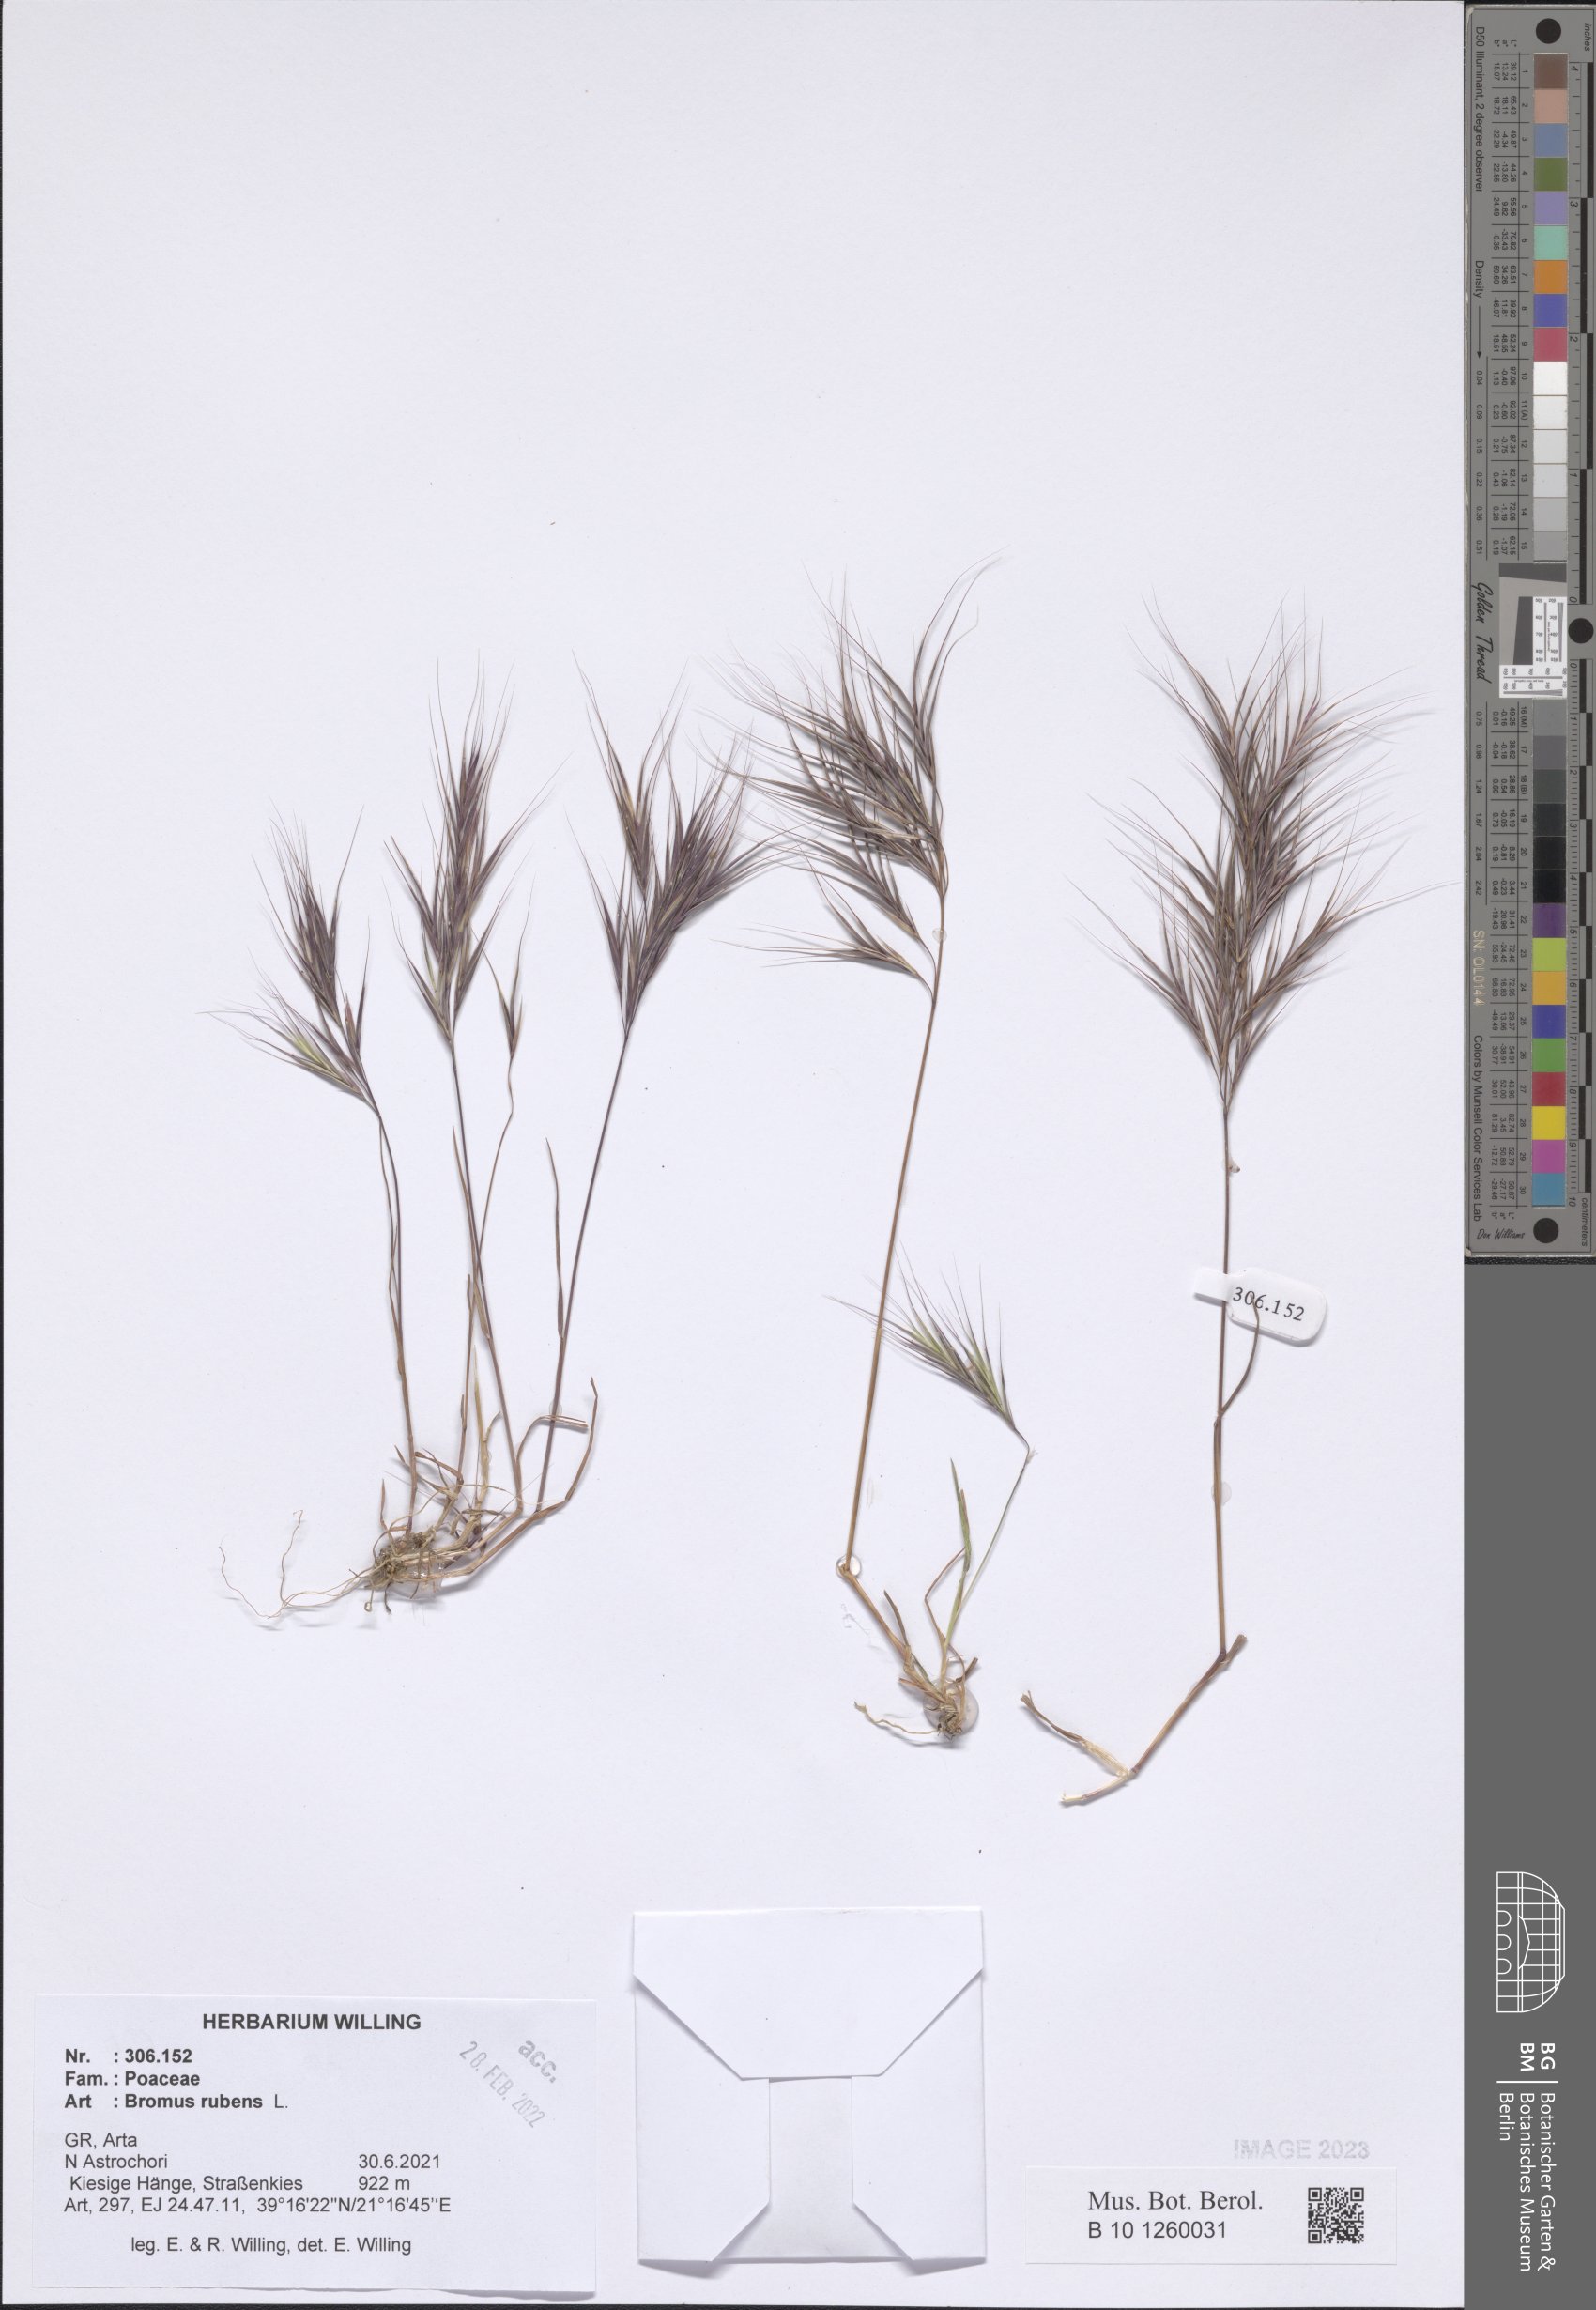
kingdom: Plantae
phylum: Tracheophyta
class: Liliopsida
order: Poales
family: Poaceae
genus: Bromus
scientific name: Bromus rubens
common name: Red brome
